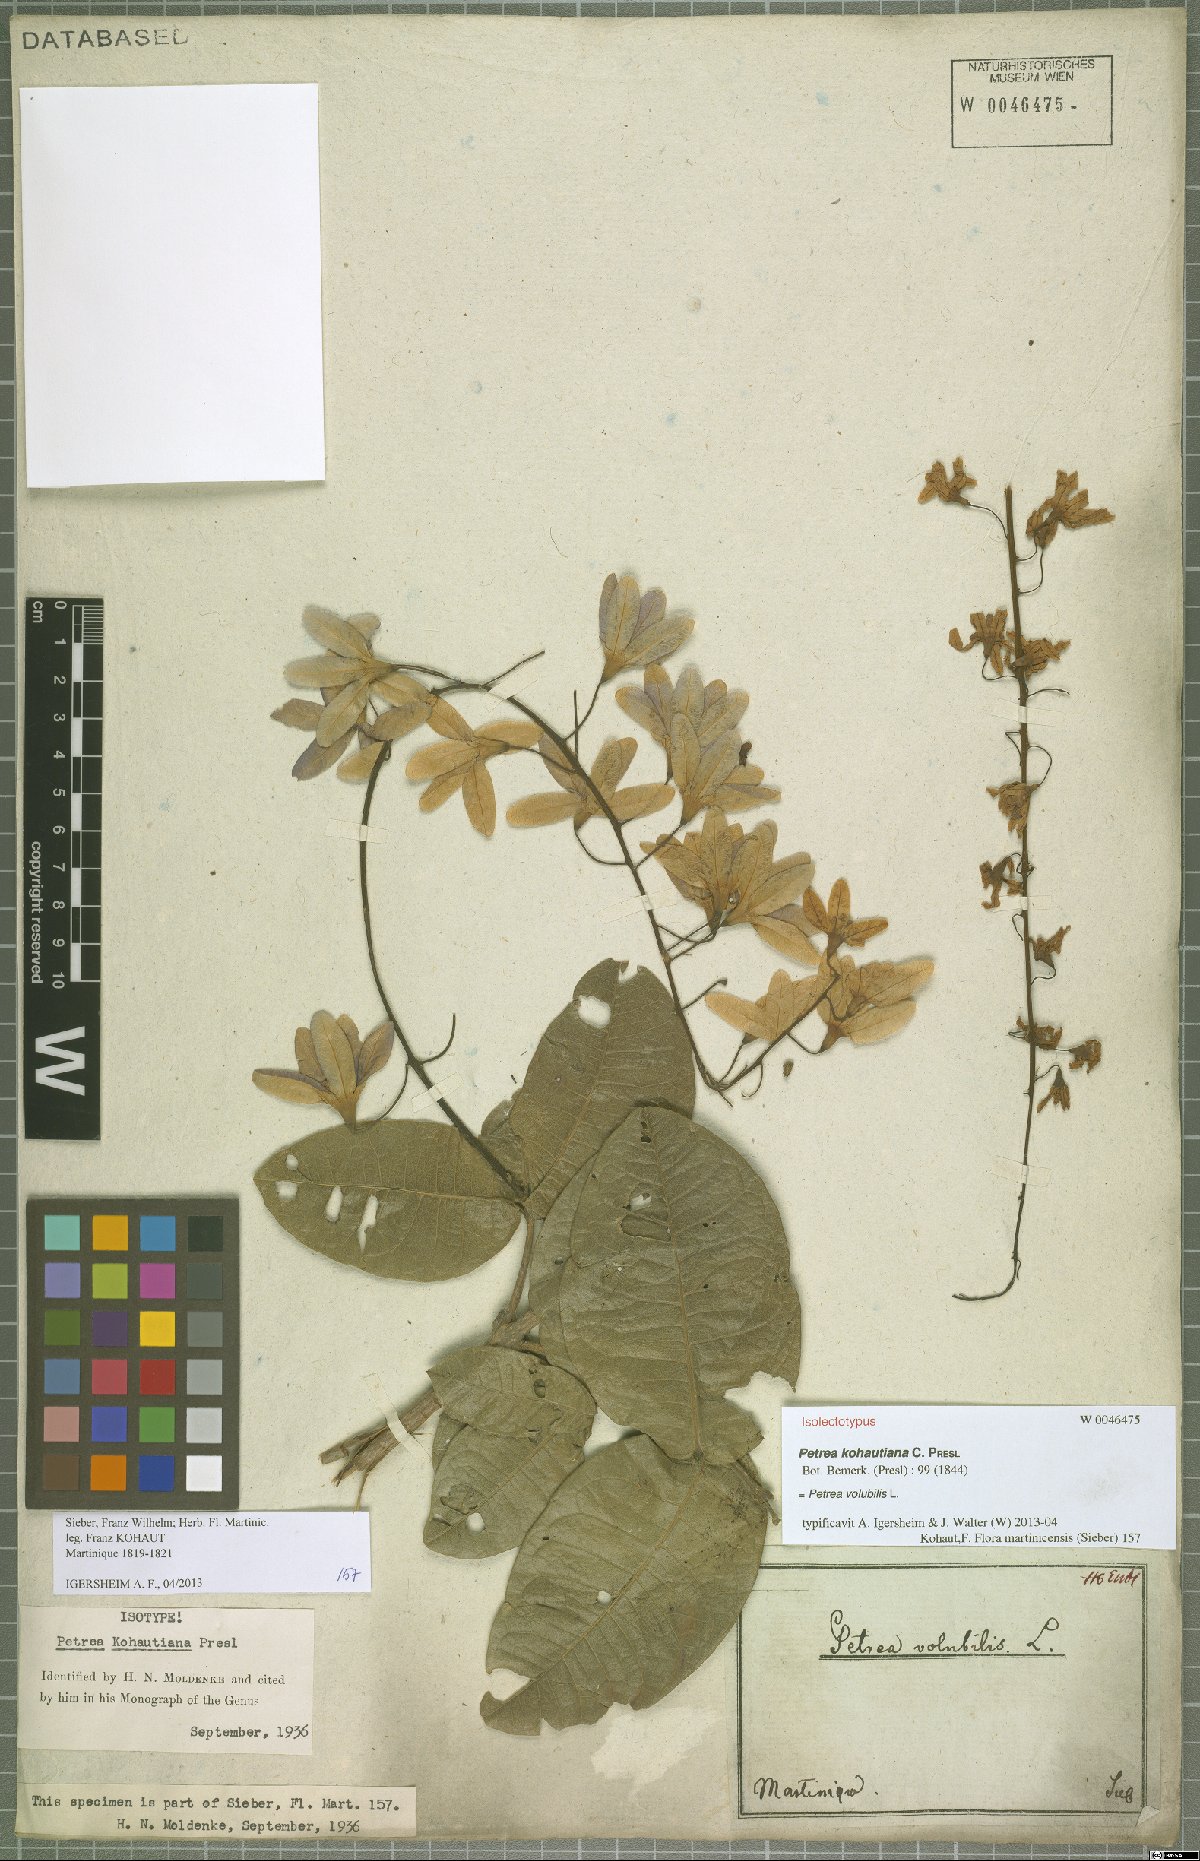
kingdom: Plantae
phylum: Tracheophyta
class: Magnoliopsida
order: Lamiales
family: Verbenaceae
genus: Petrea
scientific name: Petrea volubilis
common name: Queen's-wreath
